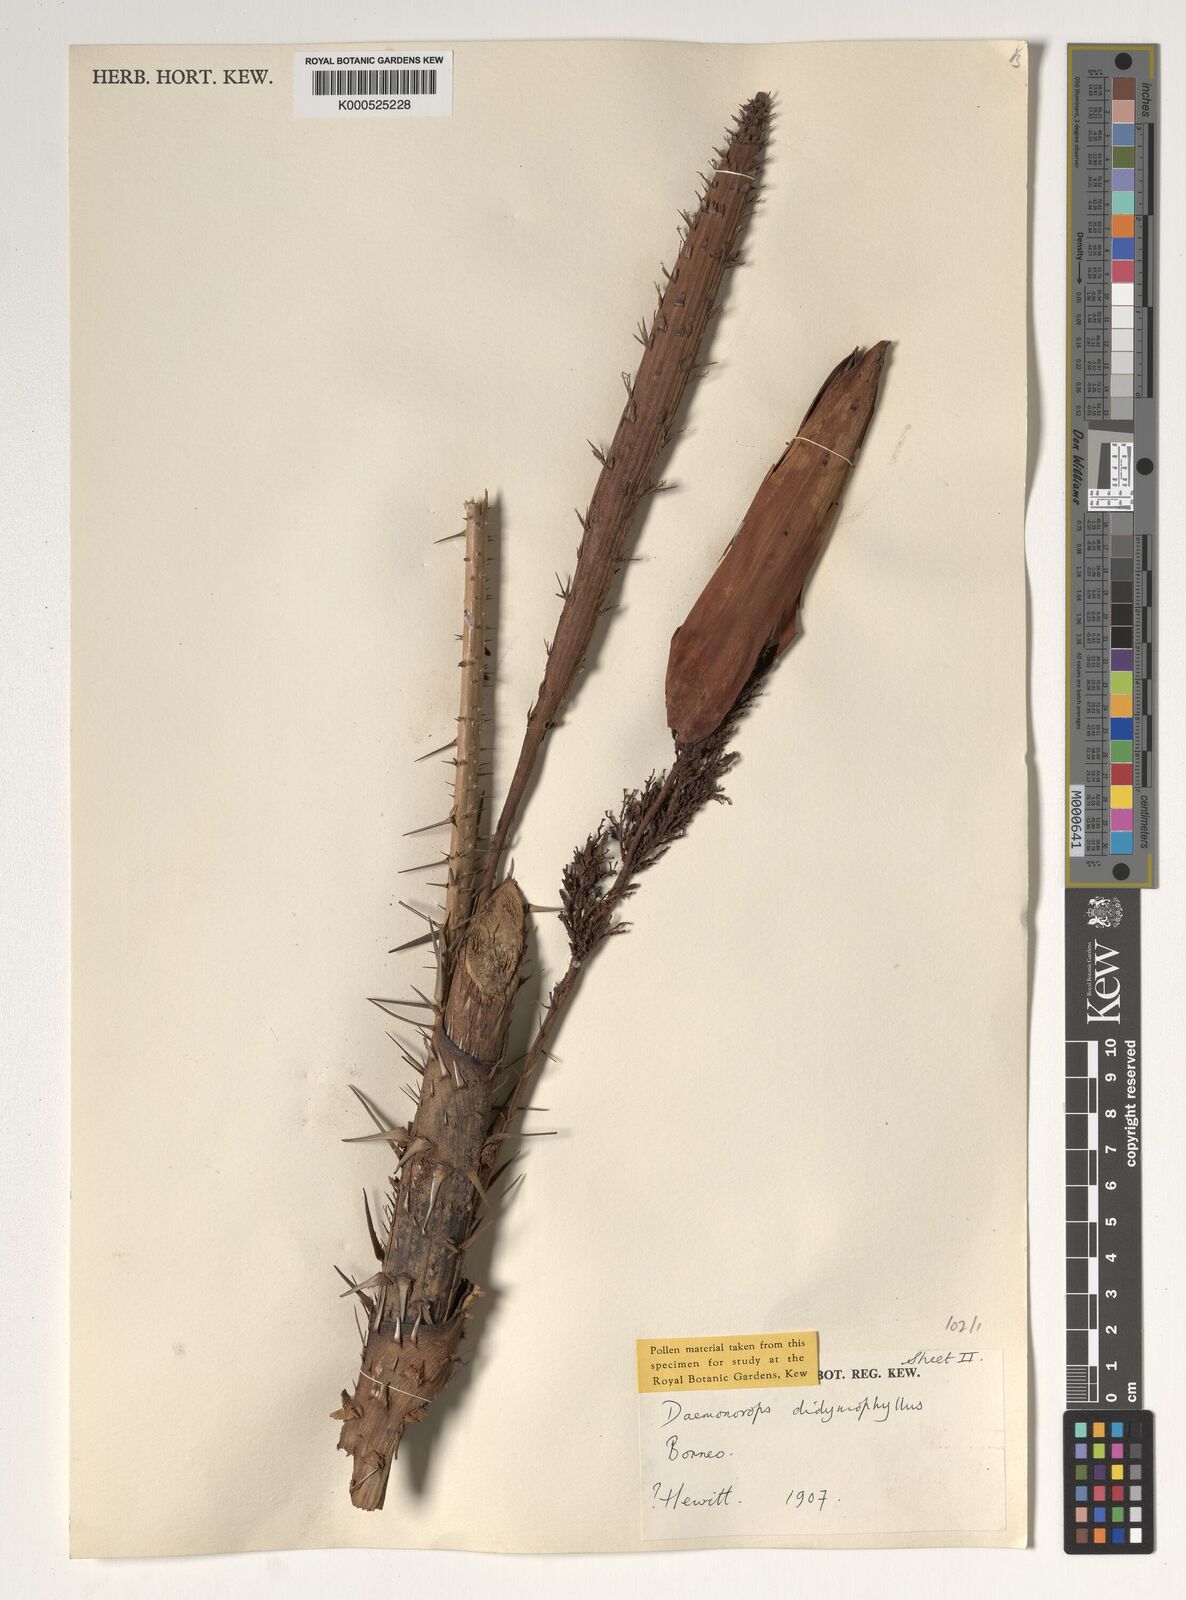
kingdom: Plantae
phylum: Tracheophyta
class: Liliopsida
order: Arecales
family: Arecaceae
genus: Calamus
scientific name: Calamus gracilipes
